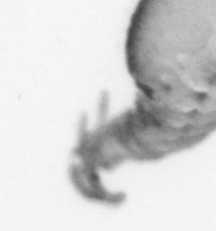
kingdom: Animalia
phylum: Annelida
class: Polychaeta
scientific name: Polychaeta
